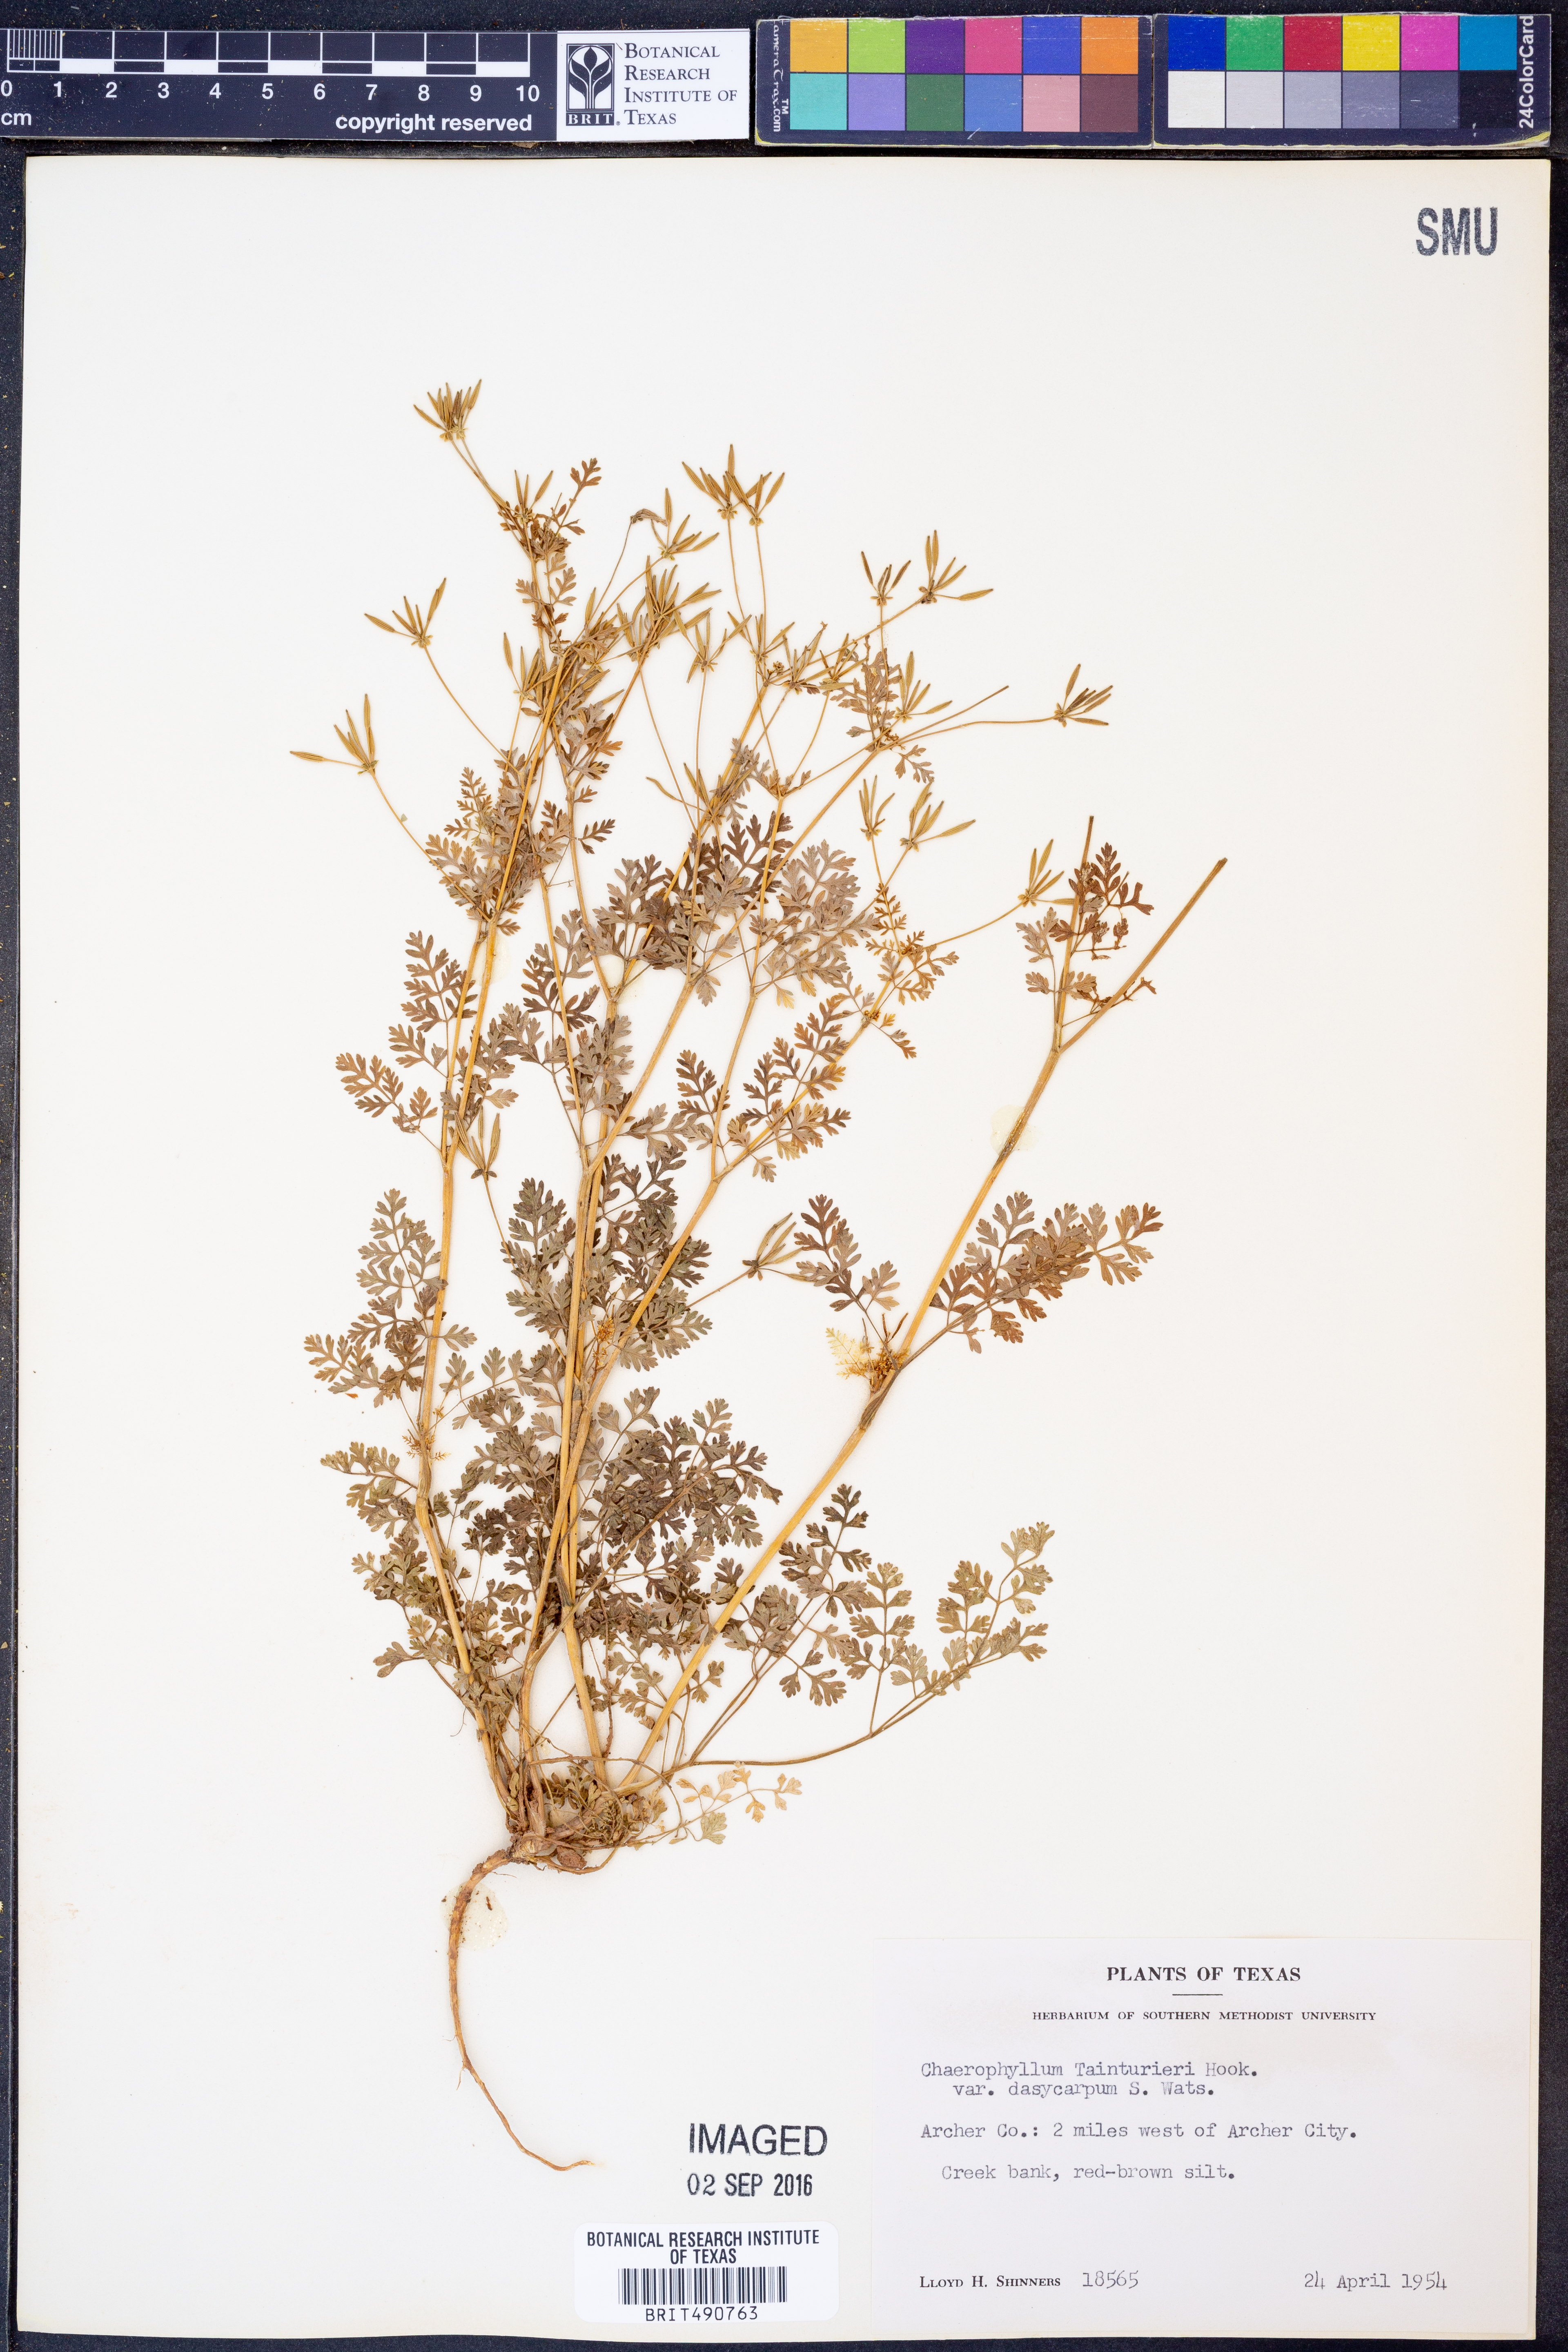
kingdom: Plantae
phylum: Tracheophyta
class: Magnoliopsida
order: Apiales
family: Apiaceae
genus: Chaerophyllum
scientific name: Chaerophyllum dasycarpum
